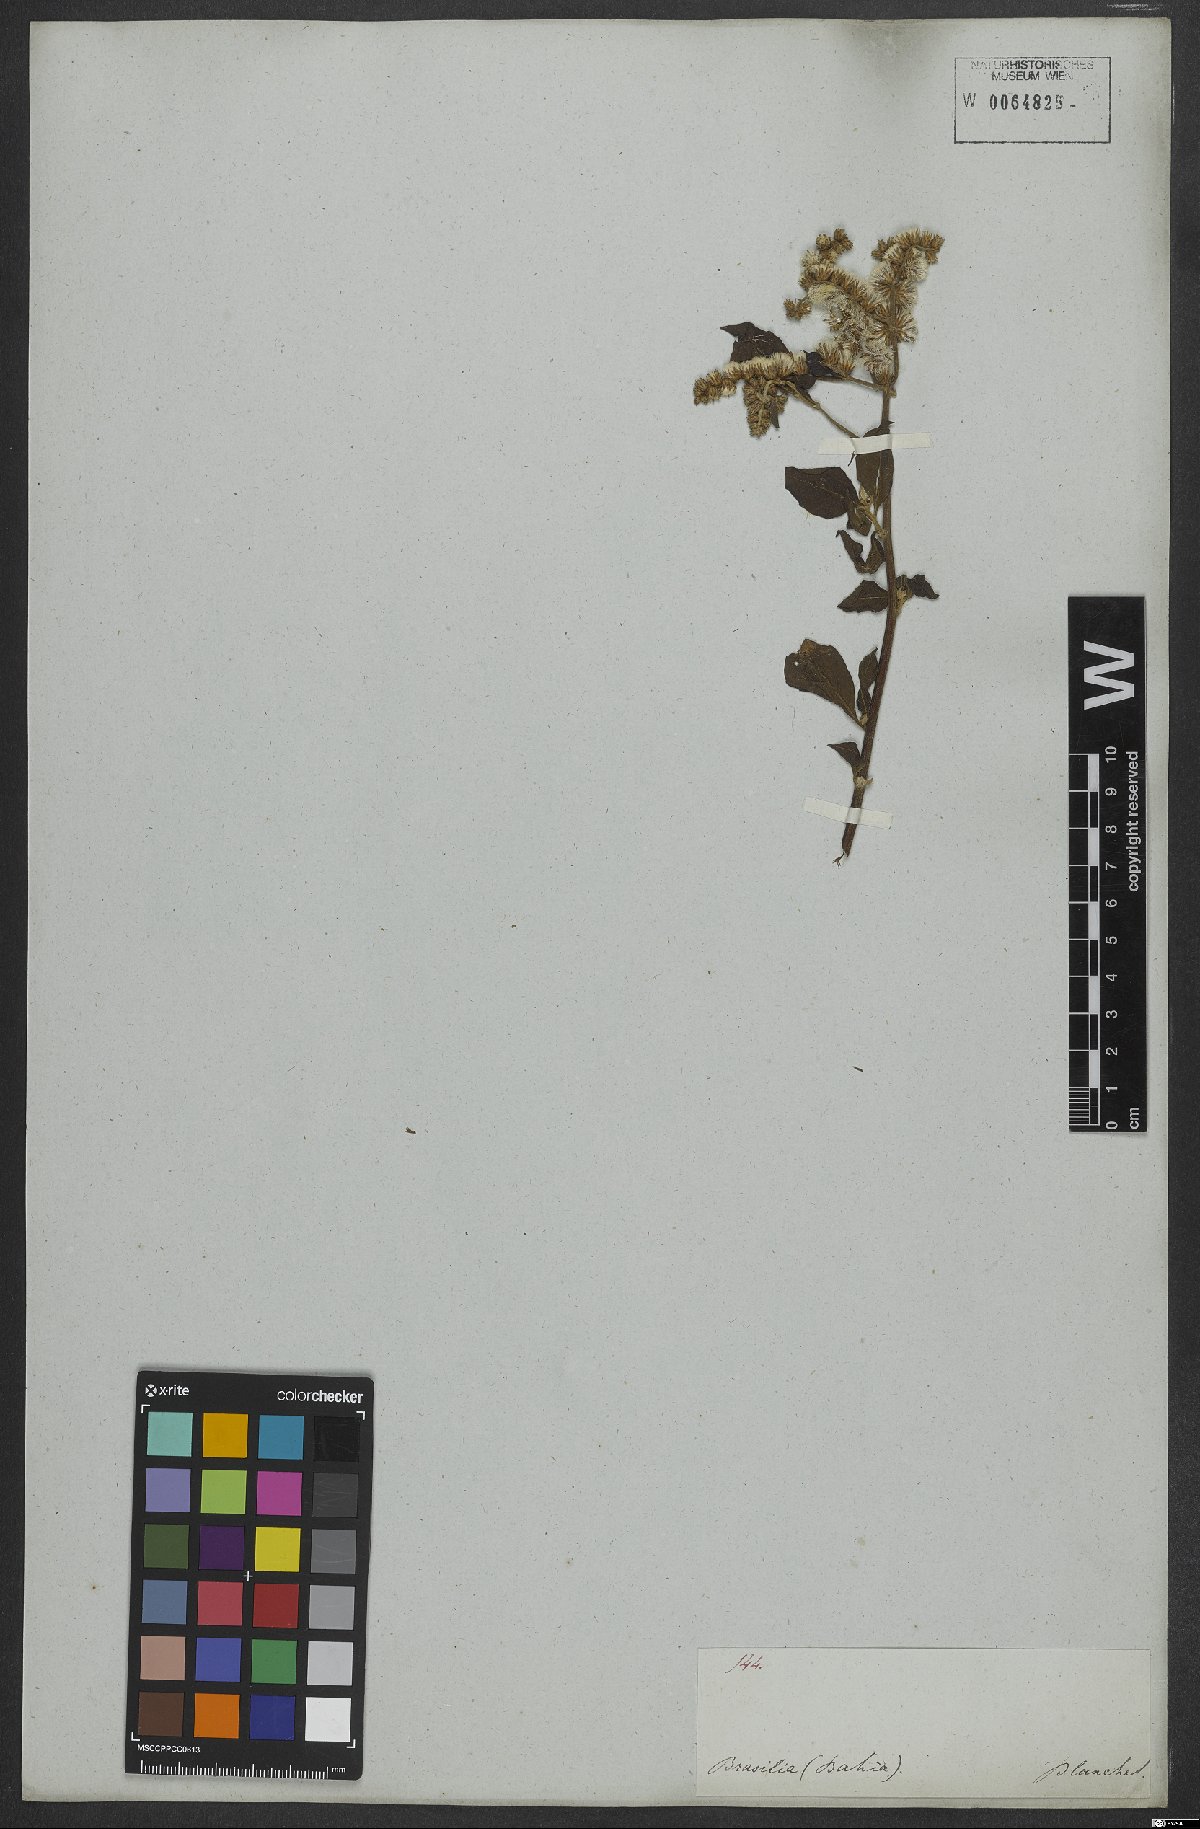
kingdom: Plantae
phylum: Tracheophyta
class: Magnoliopsida
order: Asterales
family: Asteraceae
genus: Cyrtocymura
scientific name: Cyrtocymura scorpioides
